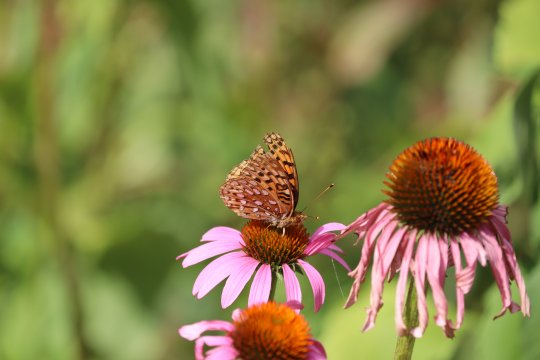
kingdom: Animalia
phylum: Arthropoda
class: Insecta
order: Lepidoptera
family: Nymphalidae
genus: Speyeria
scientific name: Speyeria aphrodite
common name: Aphrodite Fritillary
